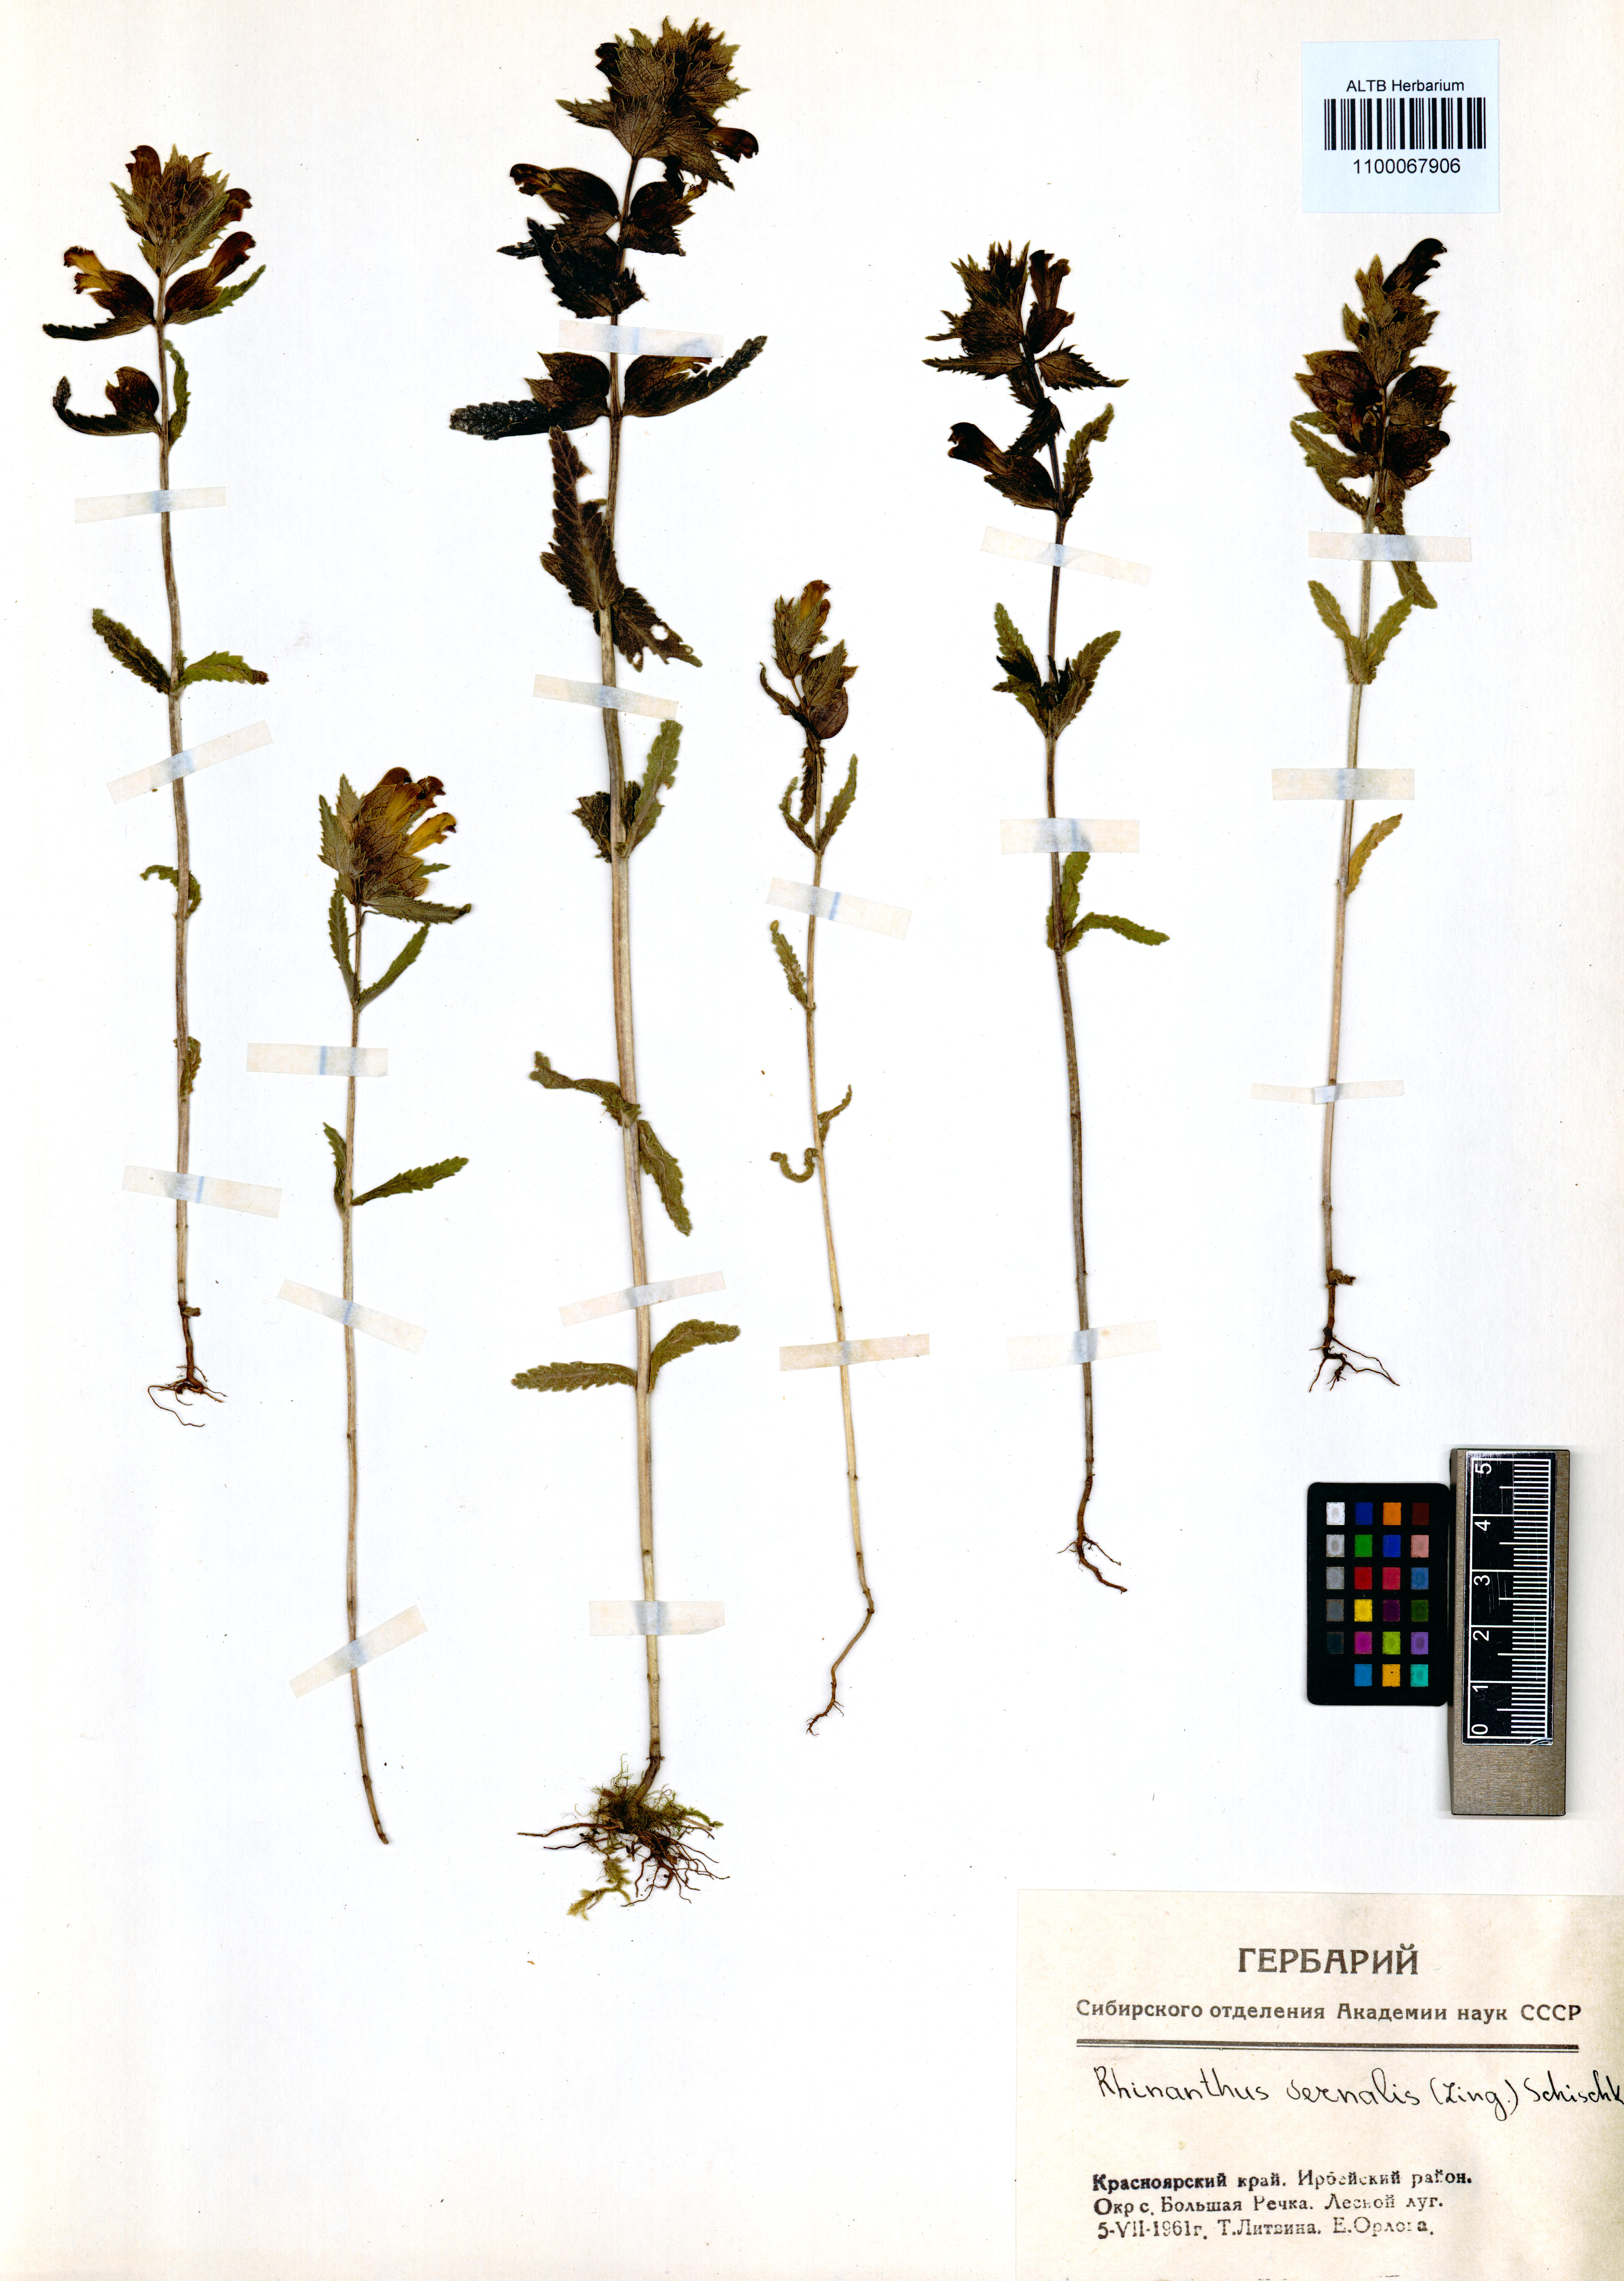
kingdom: Plantae
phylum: Tracheophyta
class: Magnoliopsida
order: Lamiales
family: Orobanchaceae
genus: Rhinanthus
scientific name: Rhinanthus serotinus
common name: Late-flowering yellow rattle
